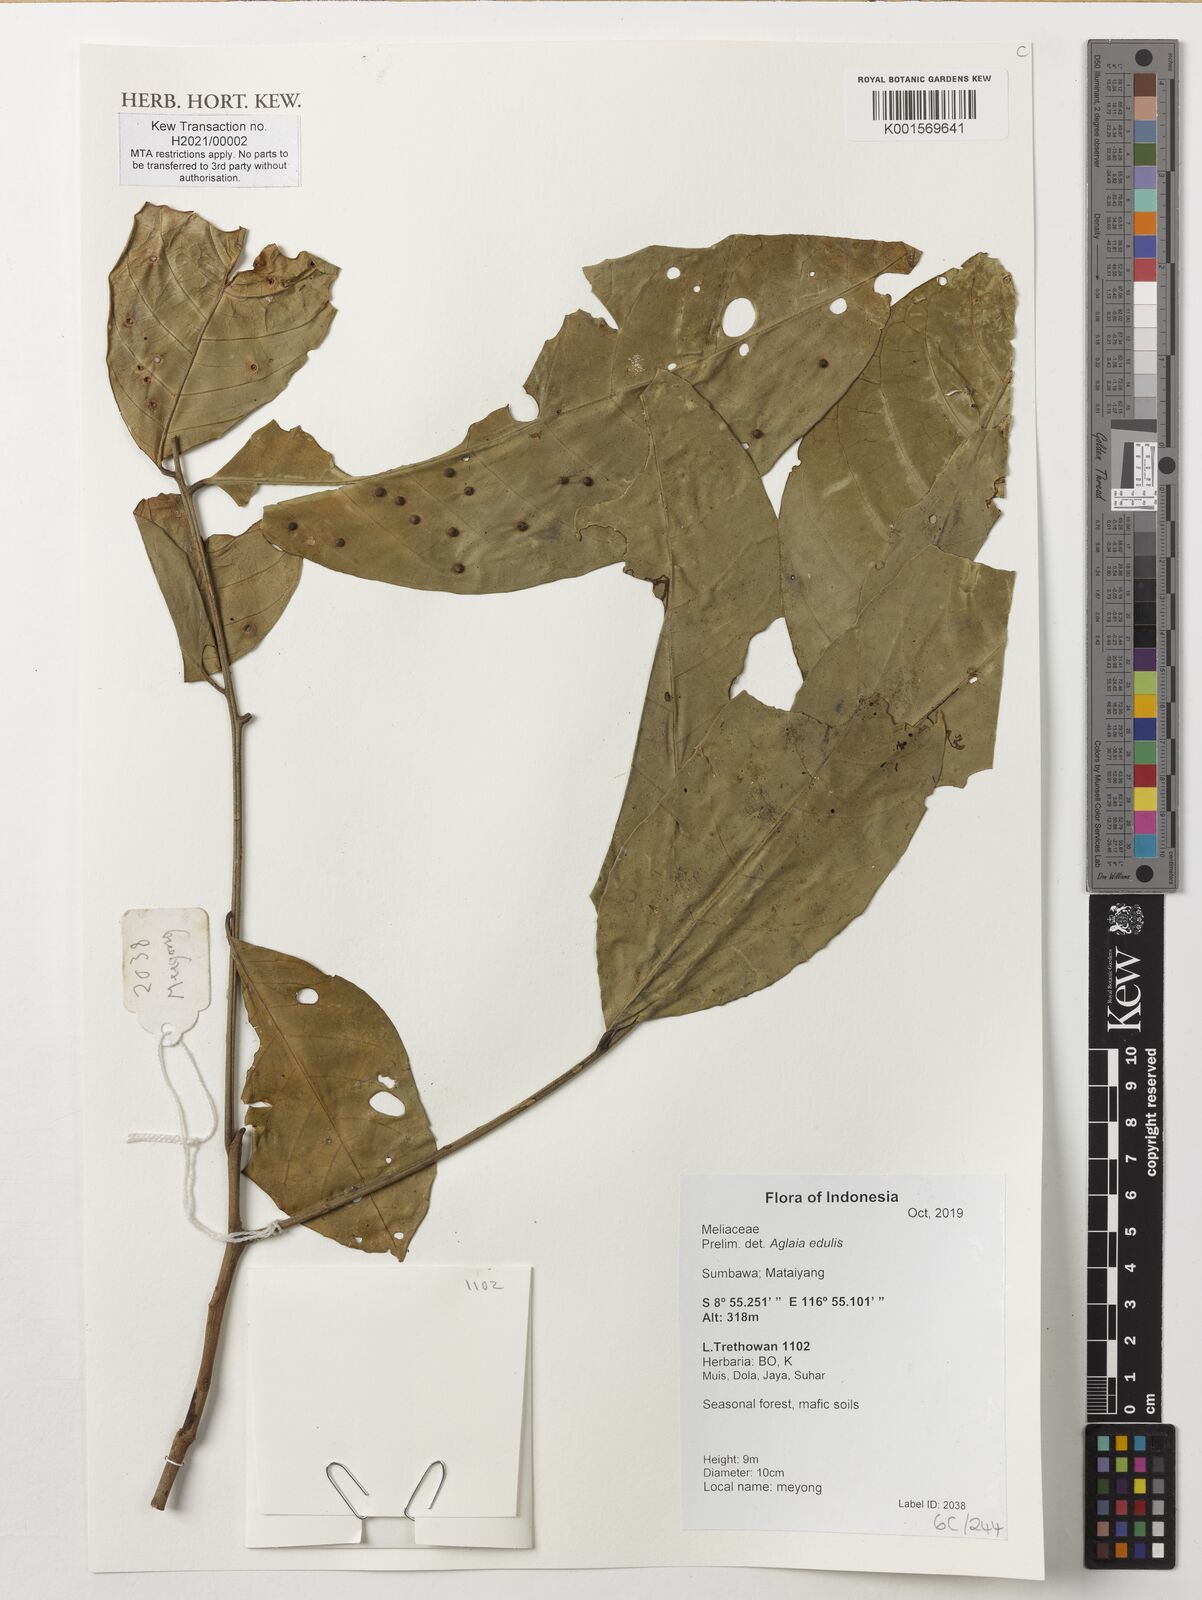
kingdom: Plantae
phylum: Tracheophyta
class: Magnoliopsida
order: Sapindales
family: Meliaceae
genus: Aglaia
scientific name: Aglaia edulis
